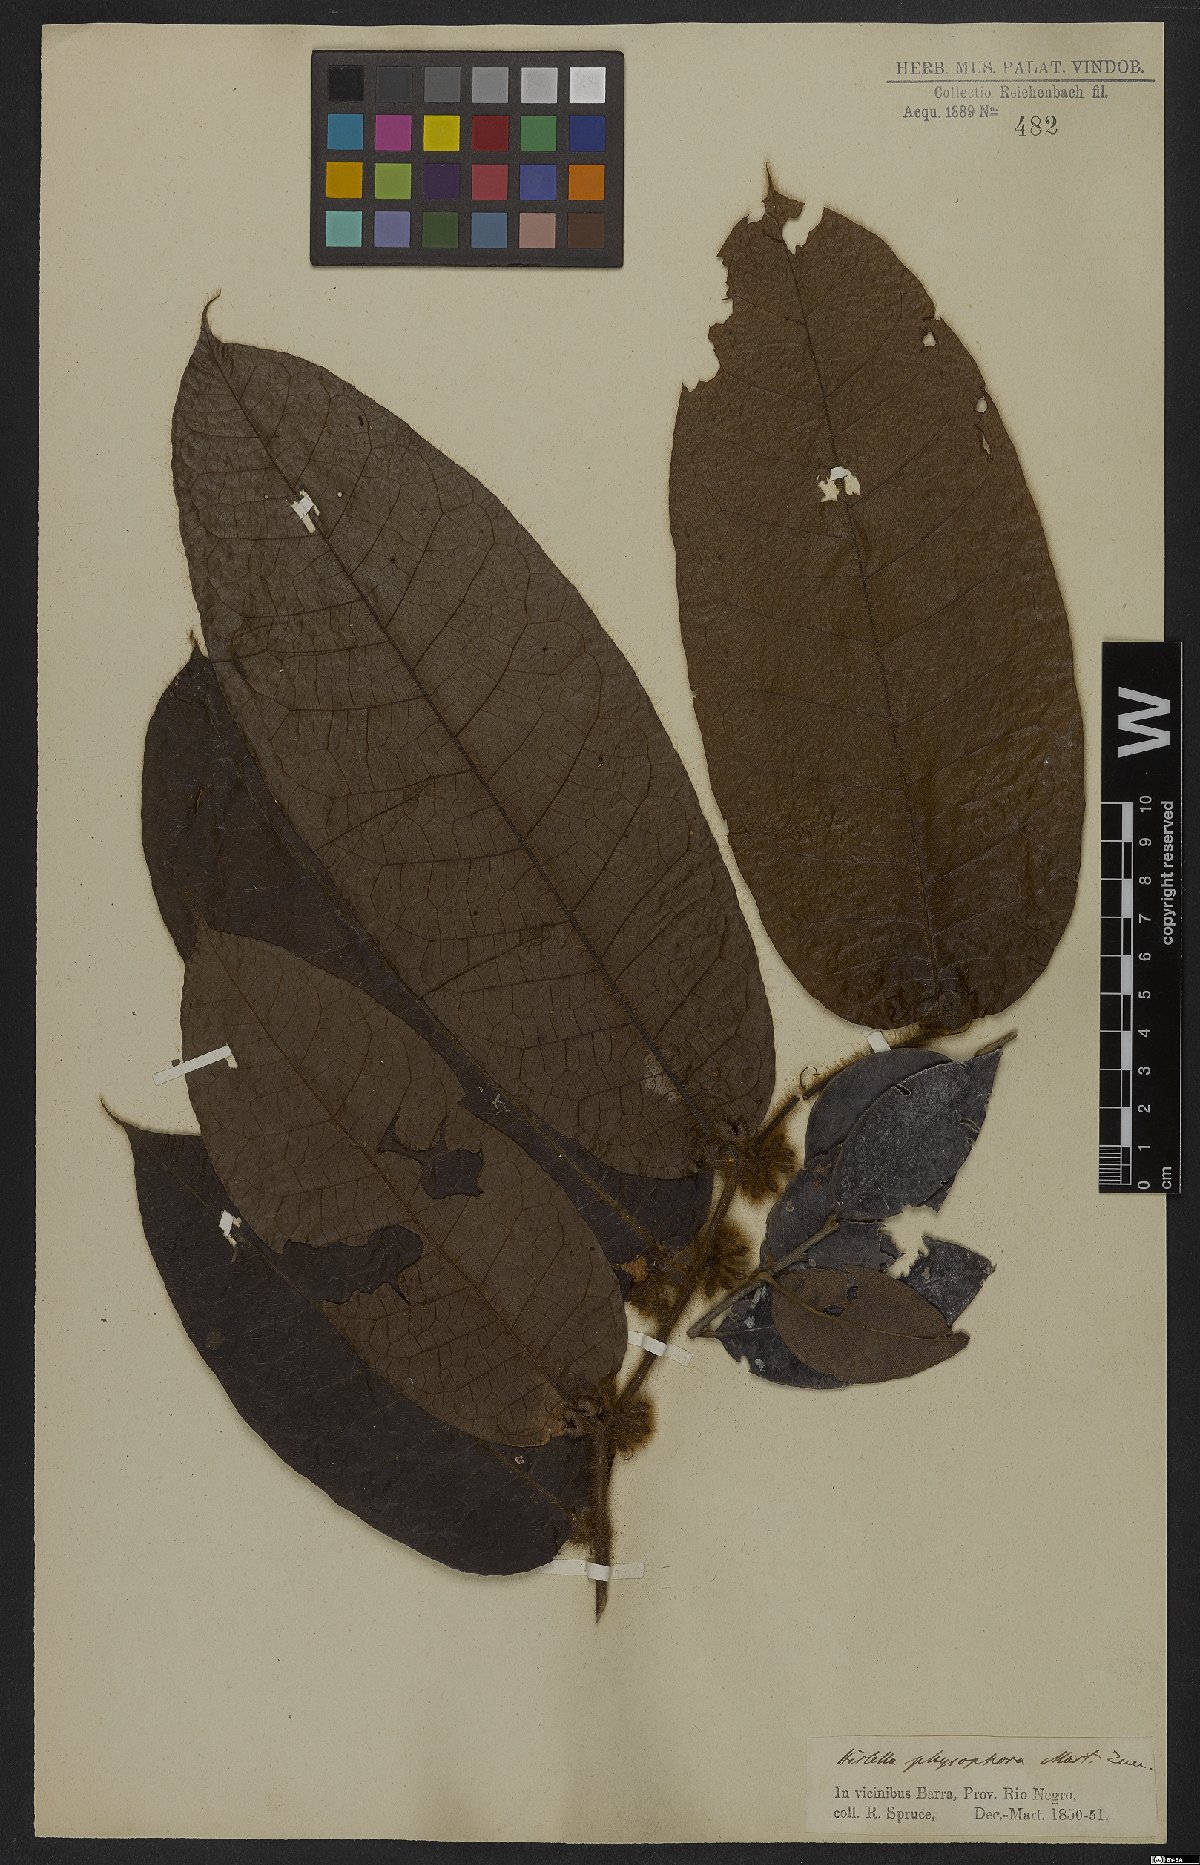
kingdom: Plantae
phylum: Tracheophyta
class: Magnoliopsida
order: Malpighiales
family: Chrysobalanaceae
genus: Hirtella
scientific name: Hirtella physophora
